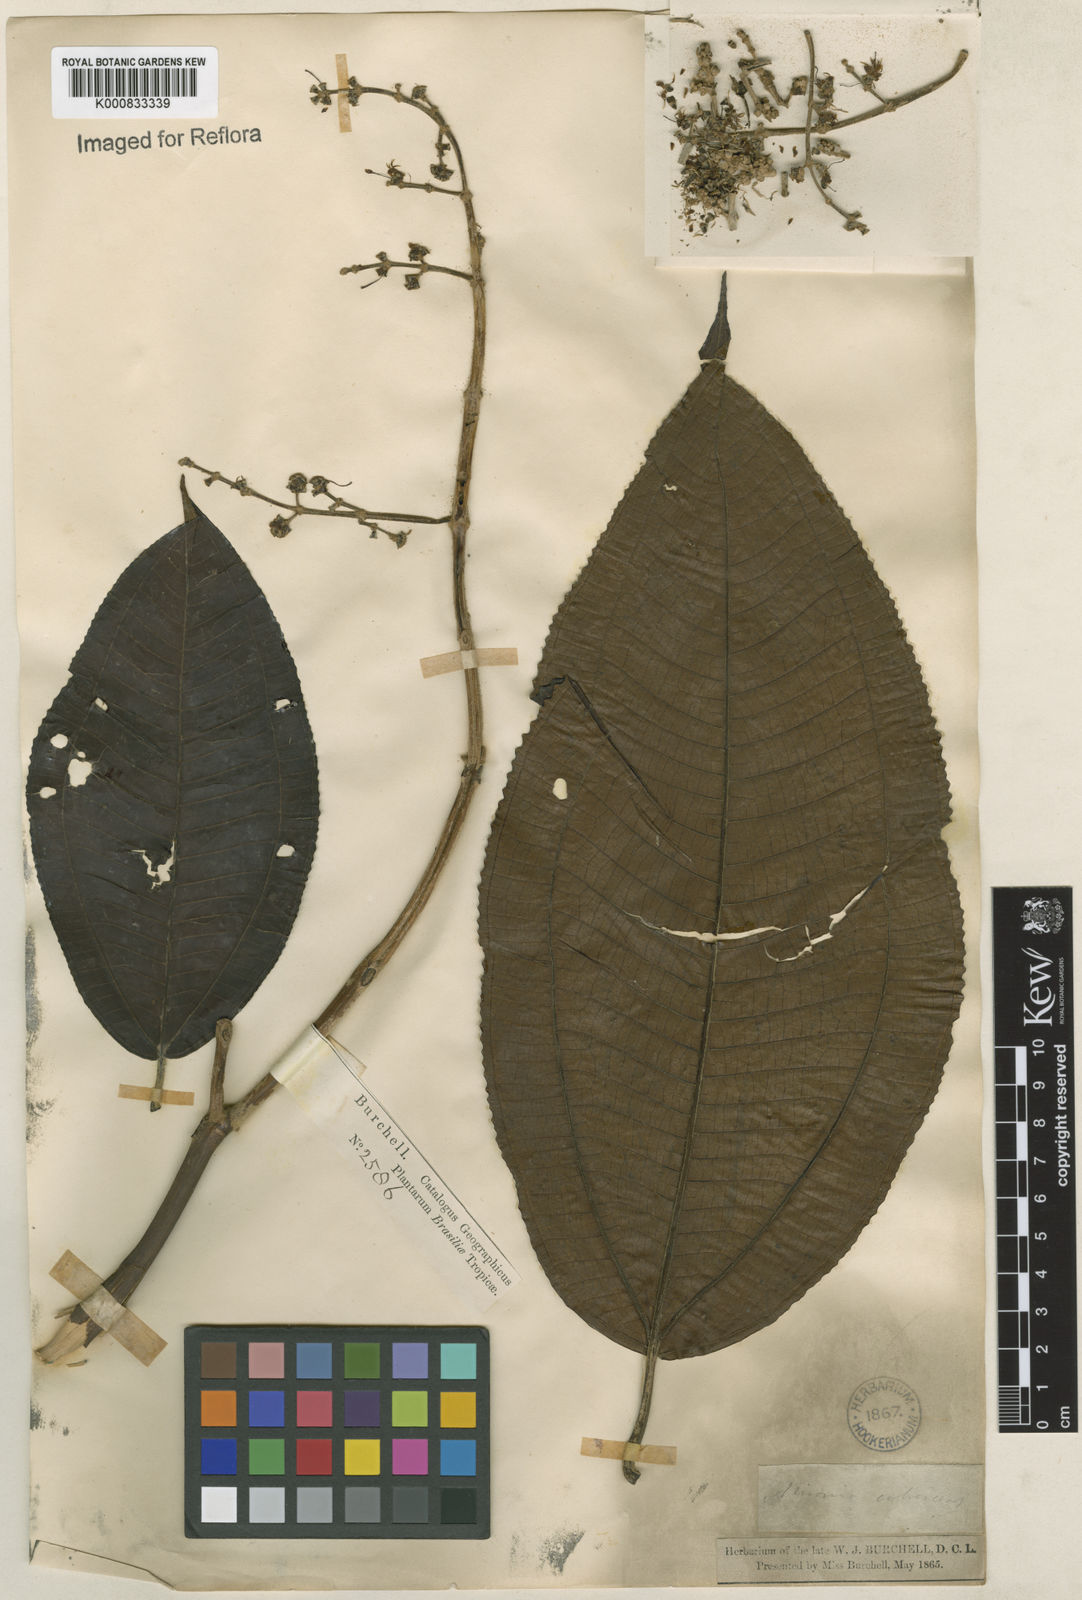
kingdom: Plantae
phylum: Tracheophyta
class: Magnoliopsida
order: Myrtales
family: Melastomataceae
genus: Miconia
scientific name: Miconia calvescens
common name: Purple plague
